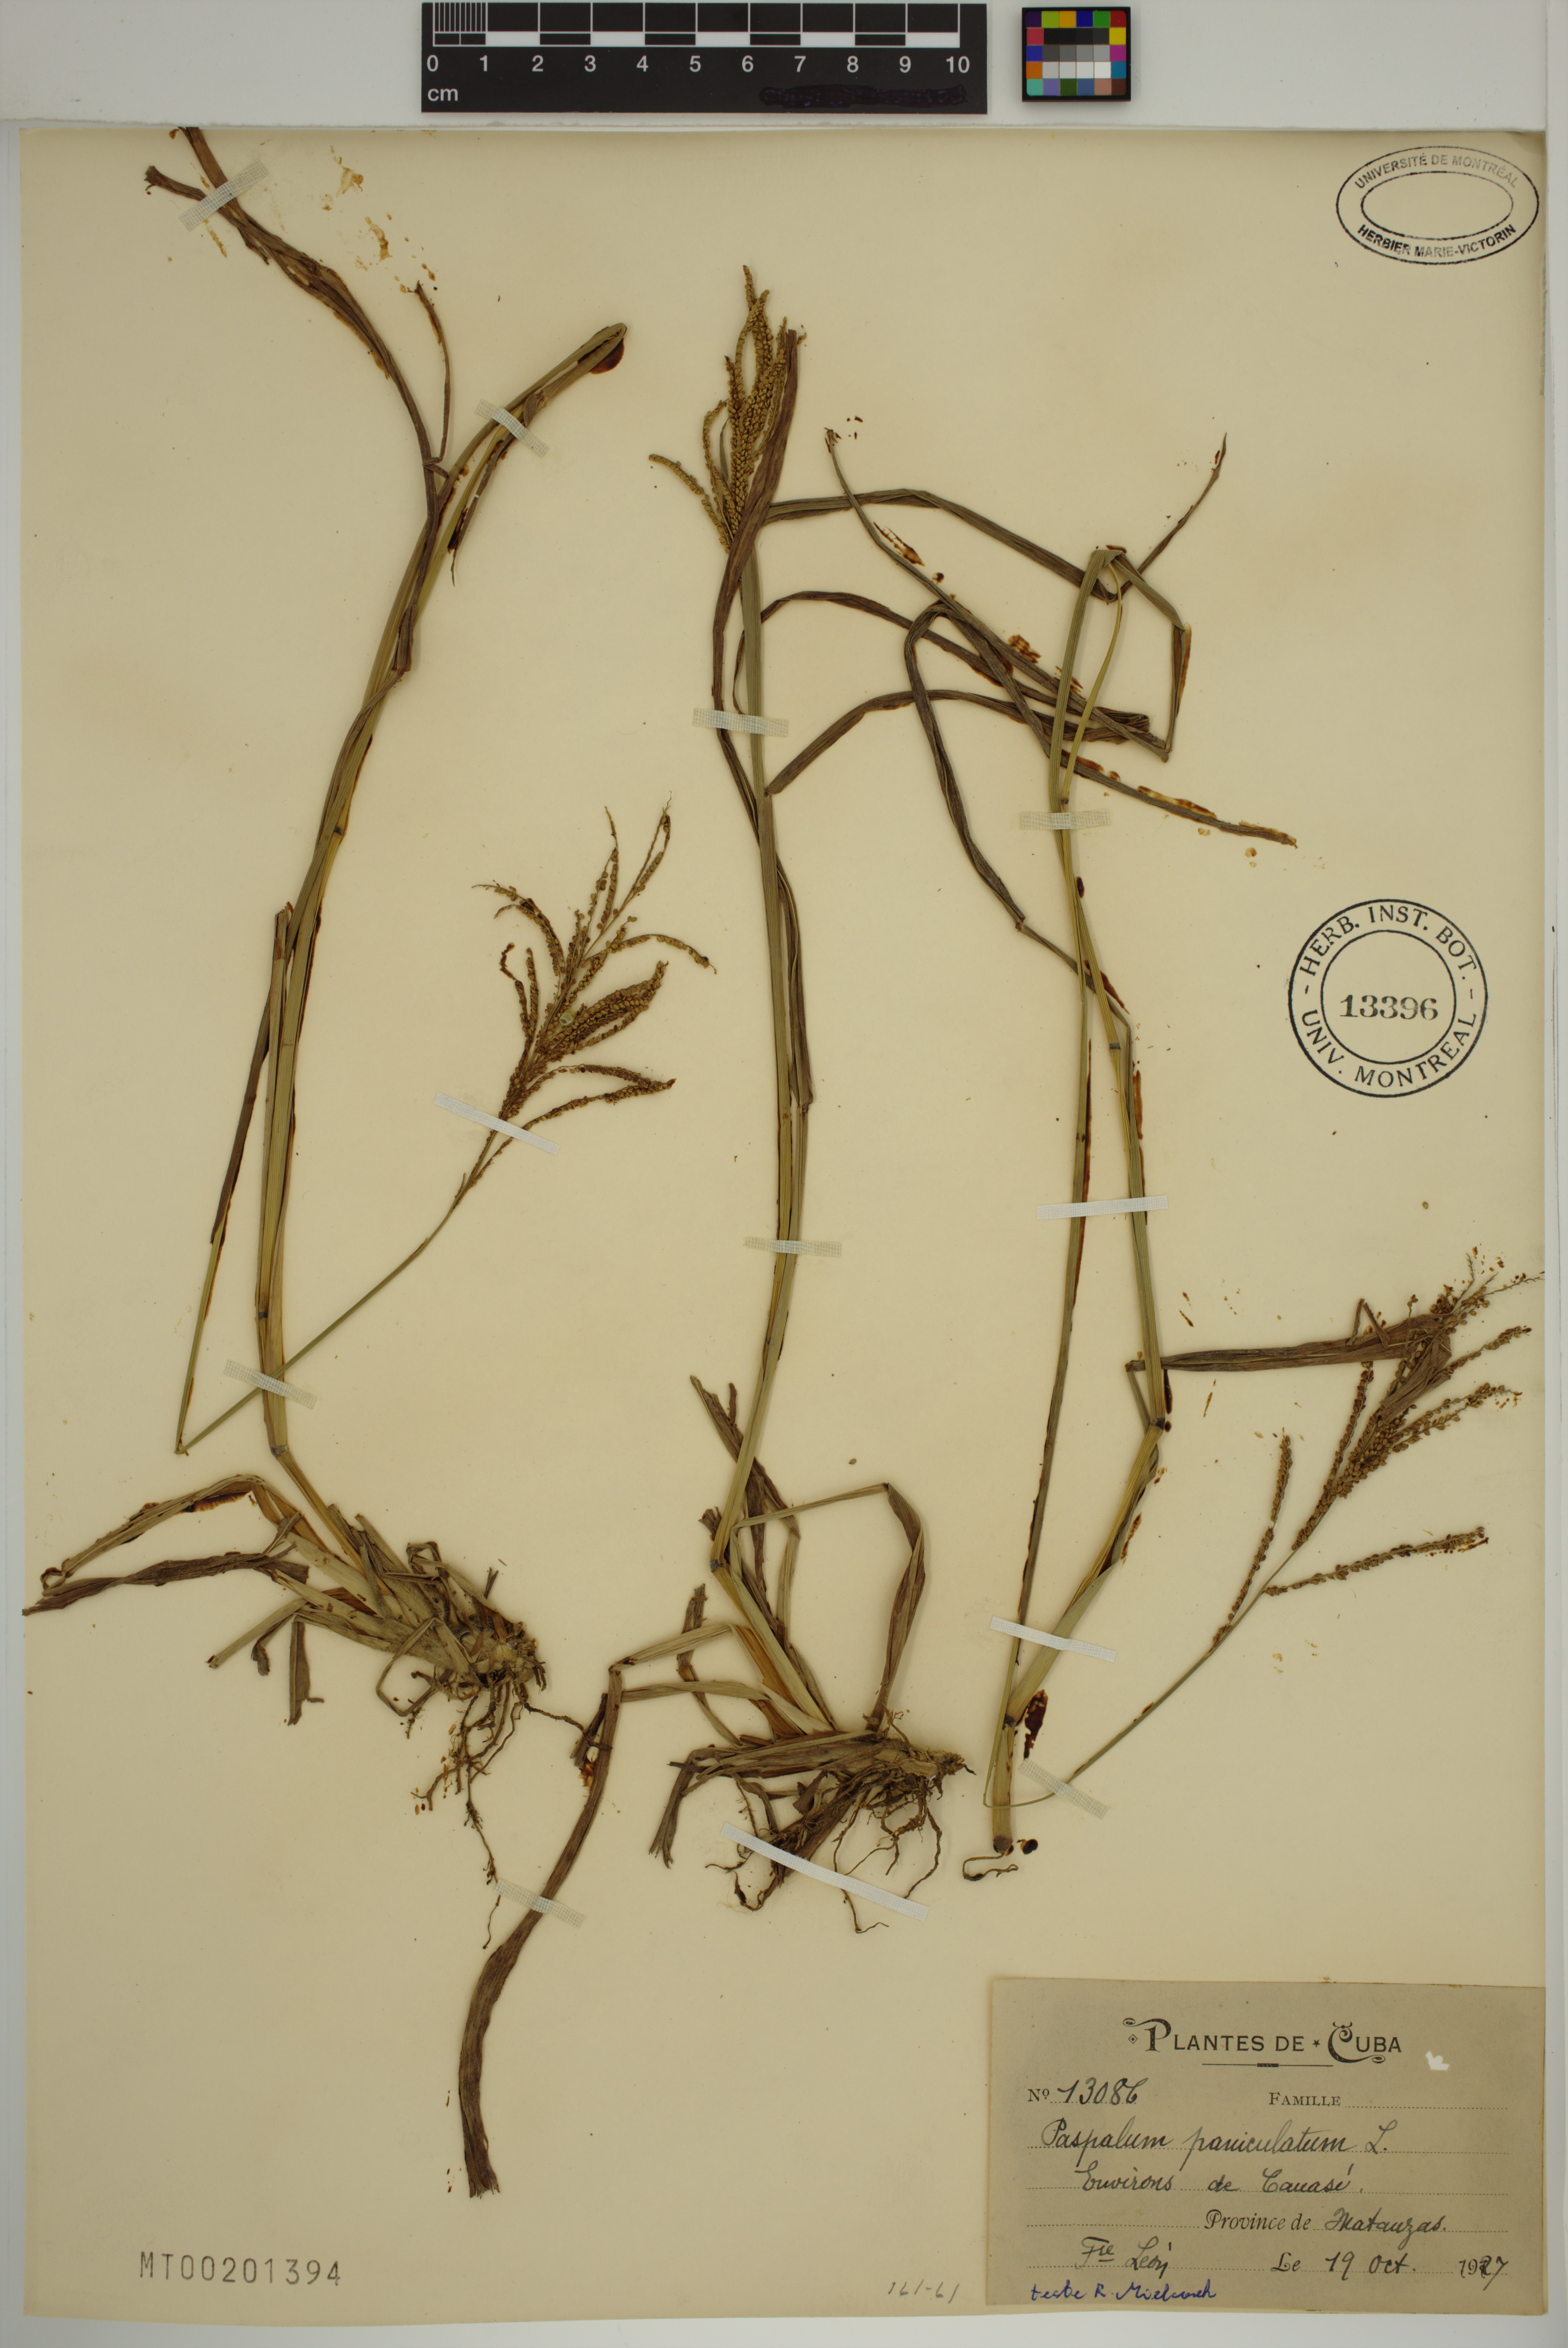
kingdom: Plantae
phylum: Tracheophyta
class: Liliopsida
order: Poales
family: Poaceae
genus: Paspalum
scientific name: Paspalum paniculatum
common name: Arrocillo
